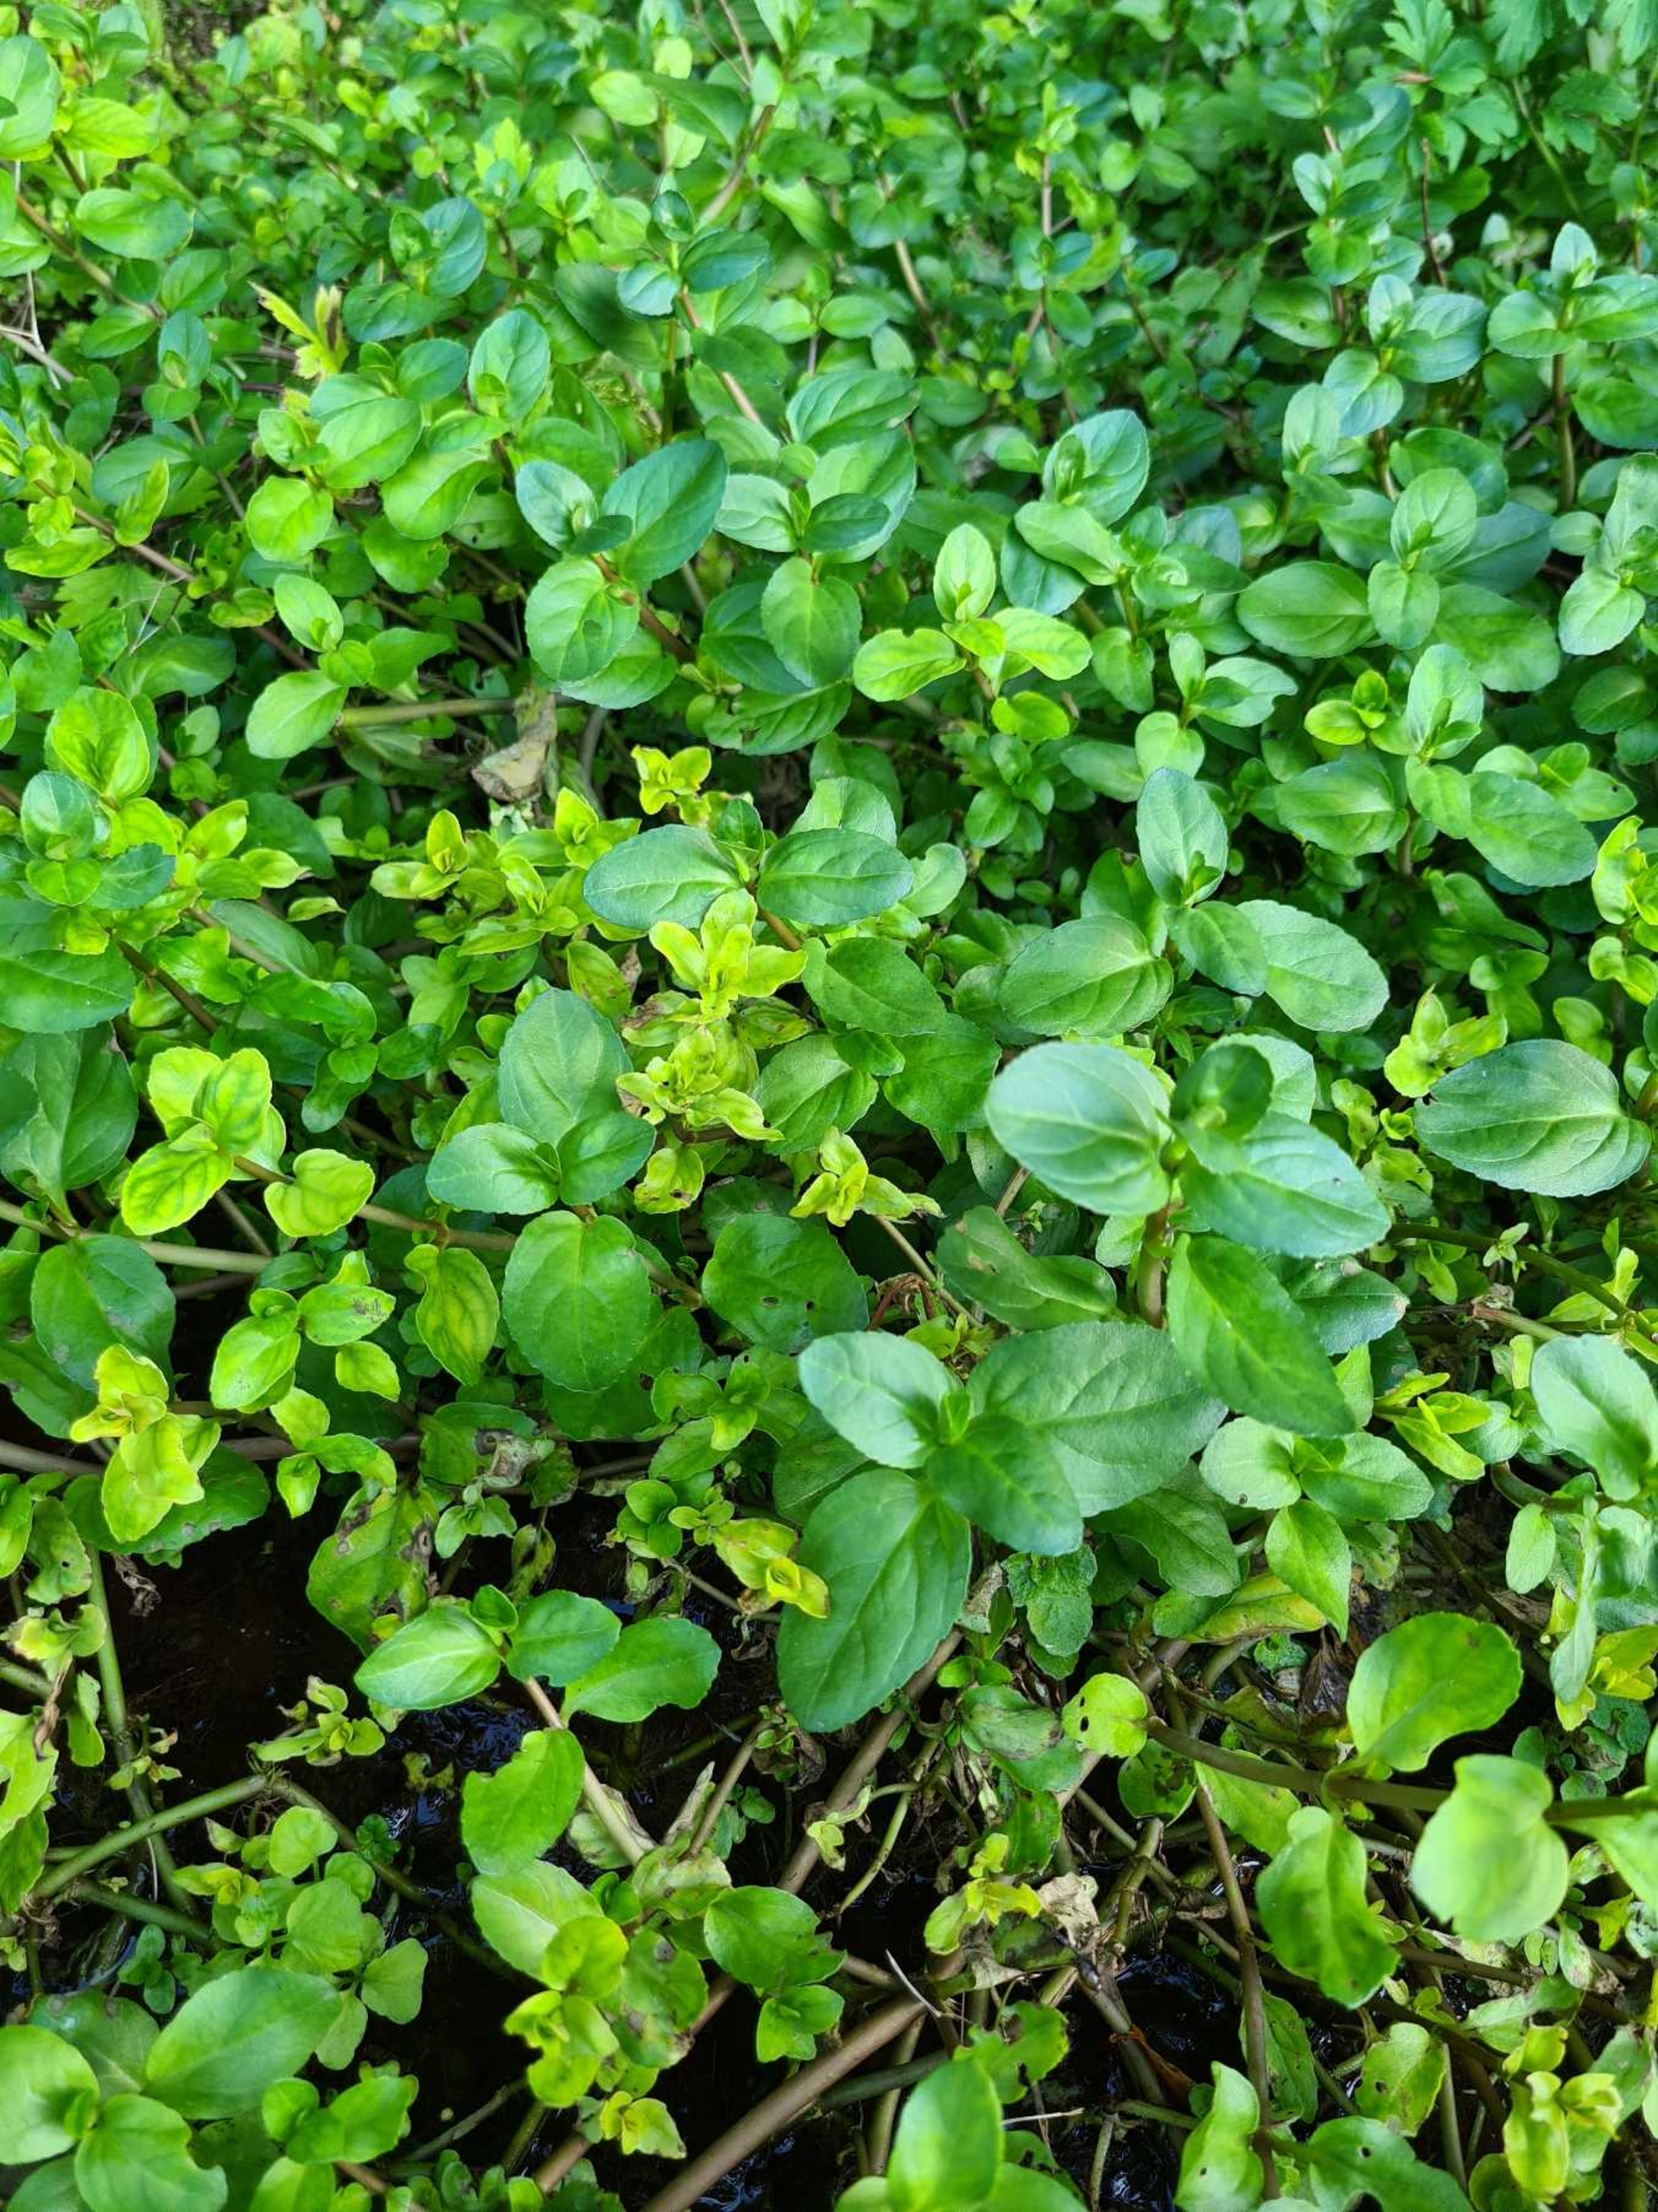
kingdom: Plantae
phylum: Tracheophyta
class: Magnoliopsida
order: Lamiales
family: Plantaginaceae
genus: Veronica
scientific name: Veronica beccabunga
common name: Tykbladet ærenpris
